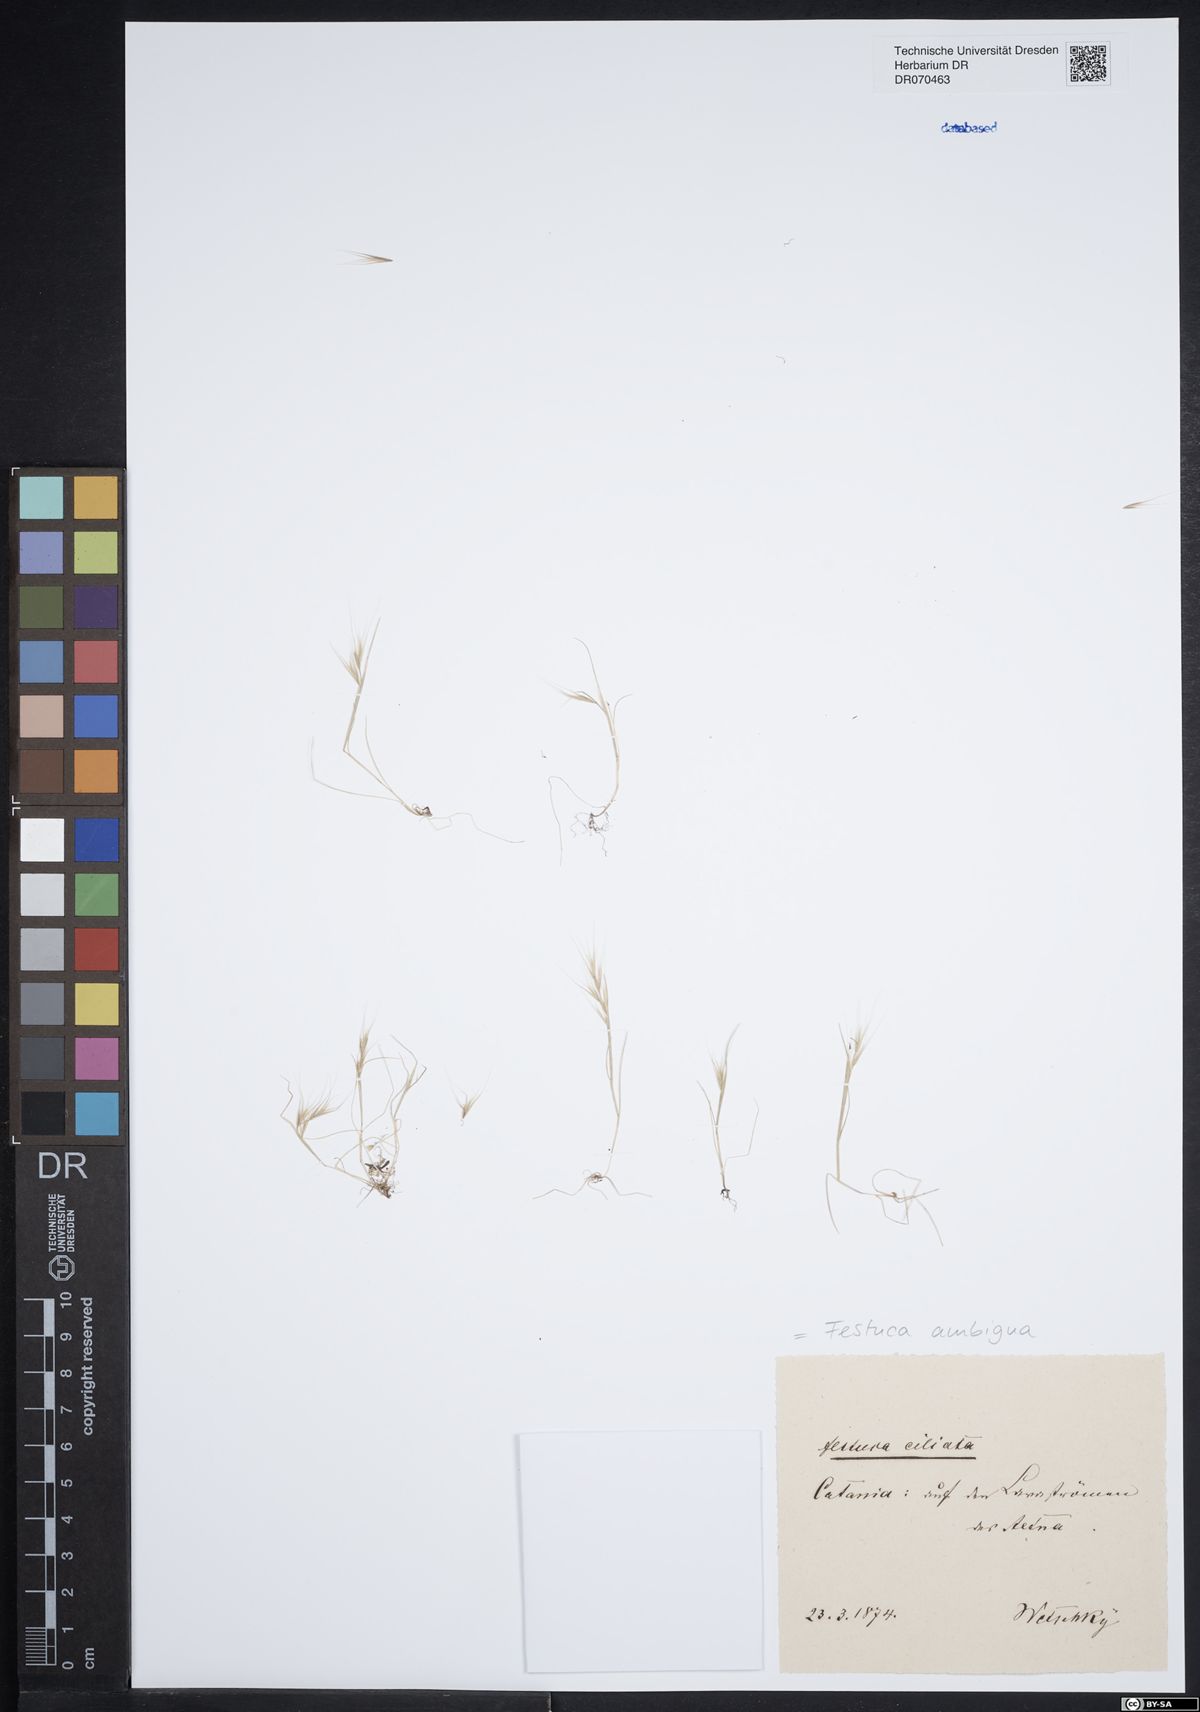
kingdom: Plantae
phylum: Tracheophyta
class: Liliopsida
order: Poales
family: Poaceae
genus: Festuca
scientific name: Festuca ambigua
